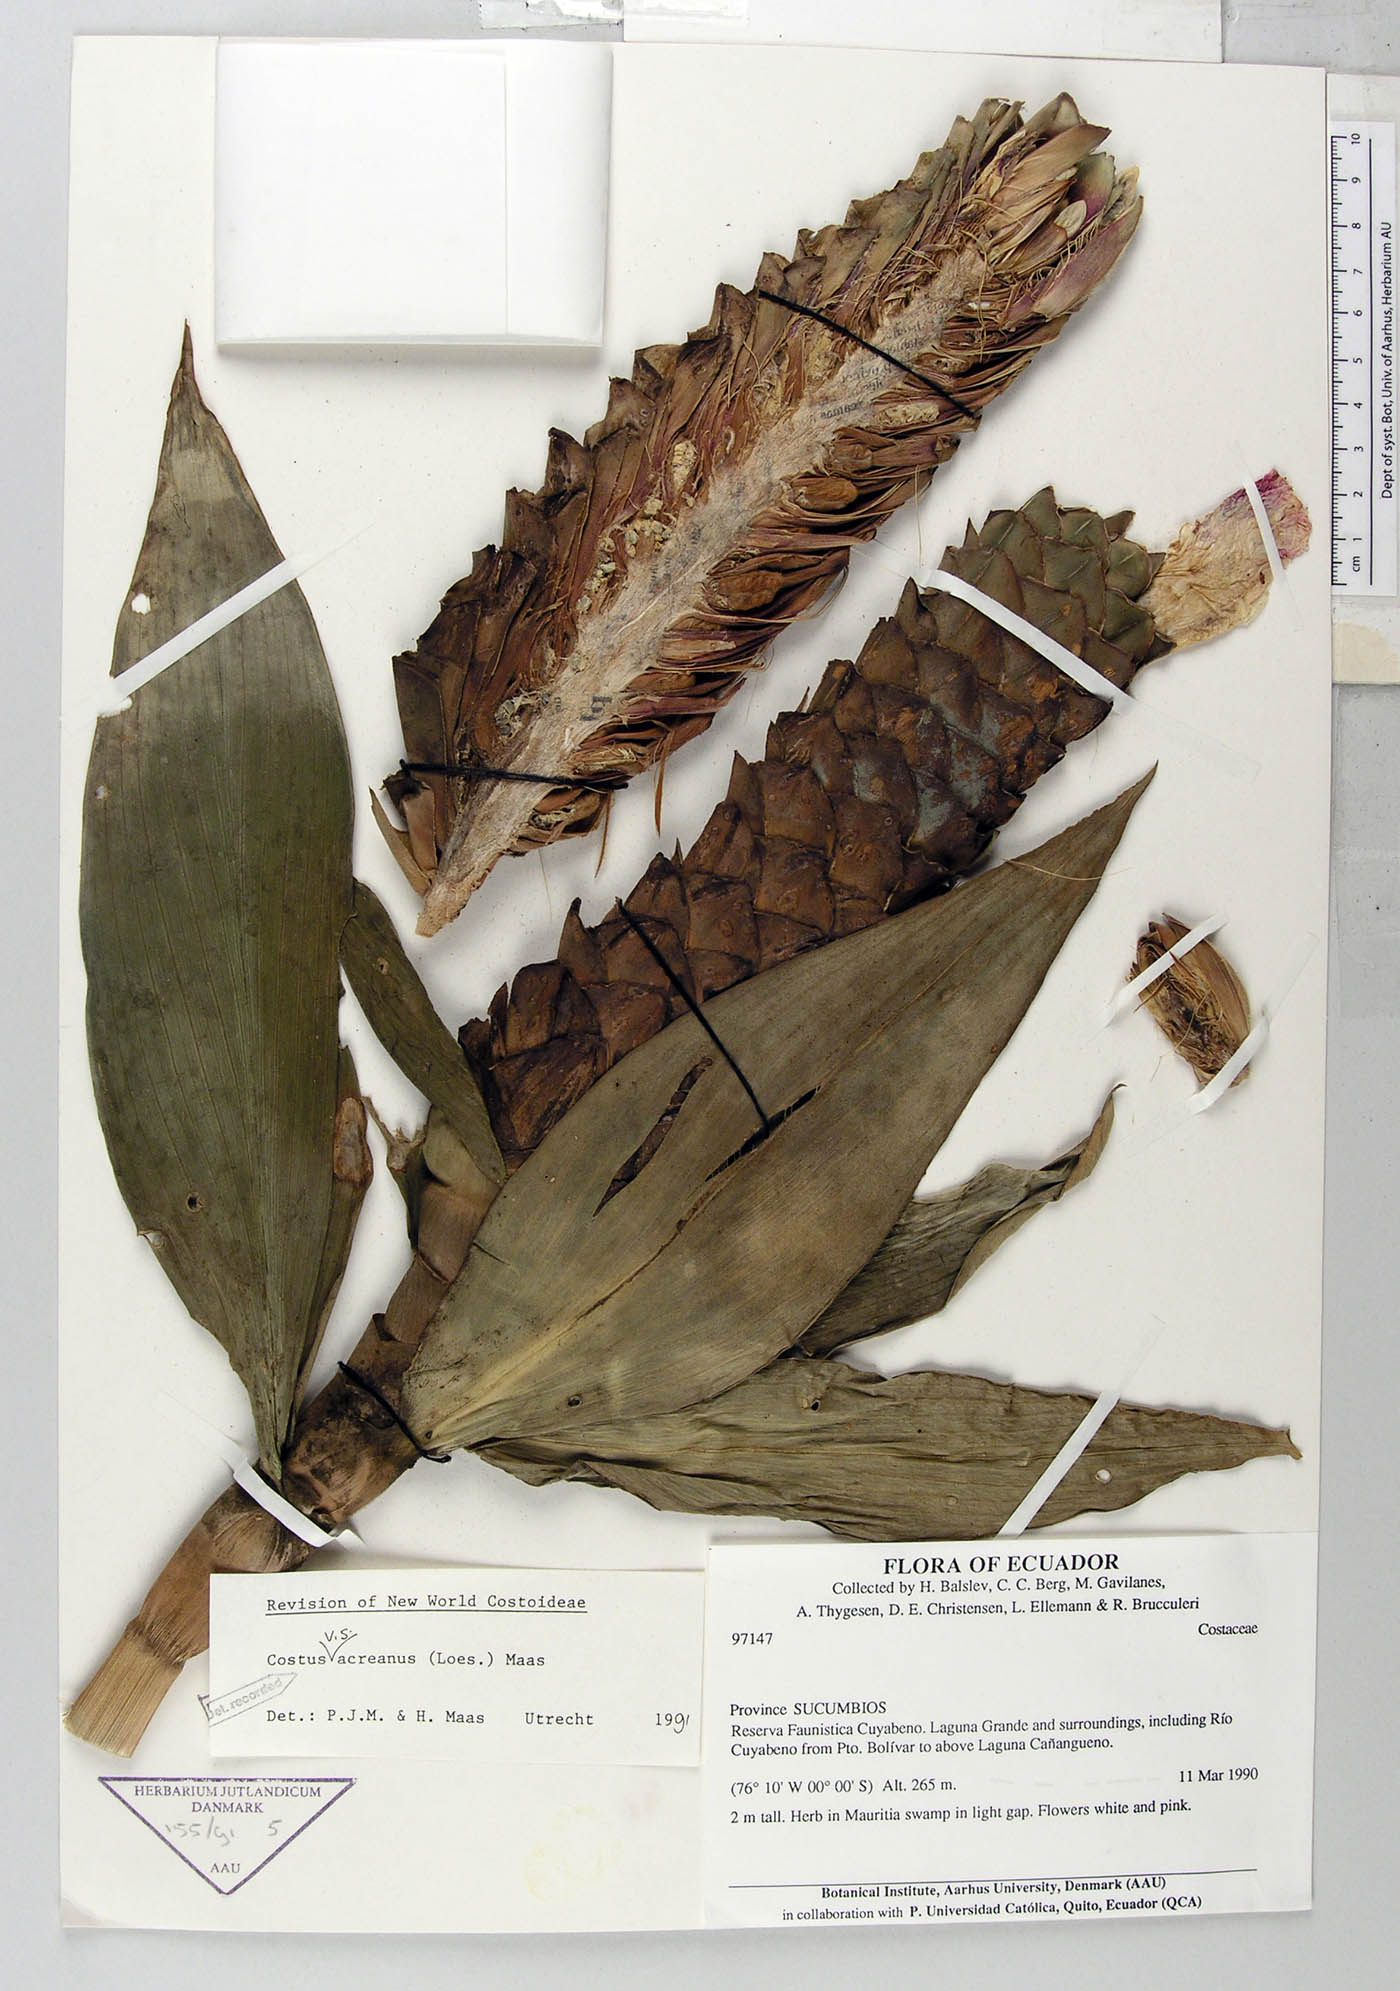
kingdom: Plantae
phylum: Tracheophyta
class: Liliopsida
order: Zingiberales
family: Costaceae
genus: Costus
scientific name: Costus acreanus
